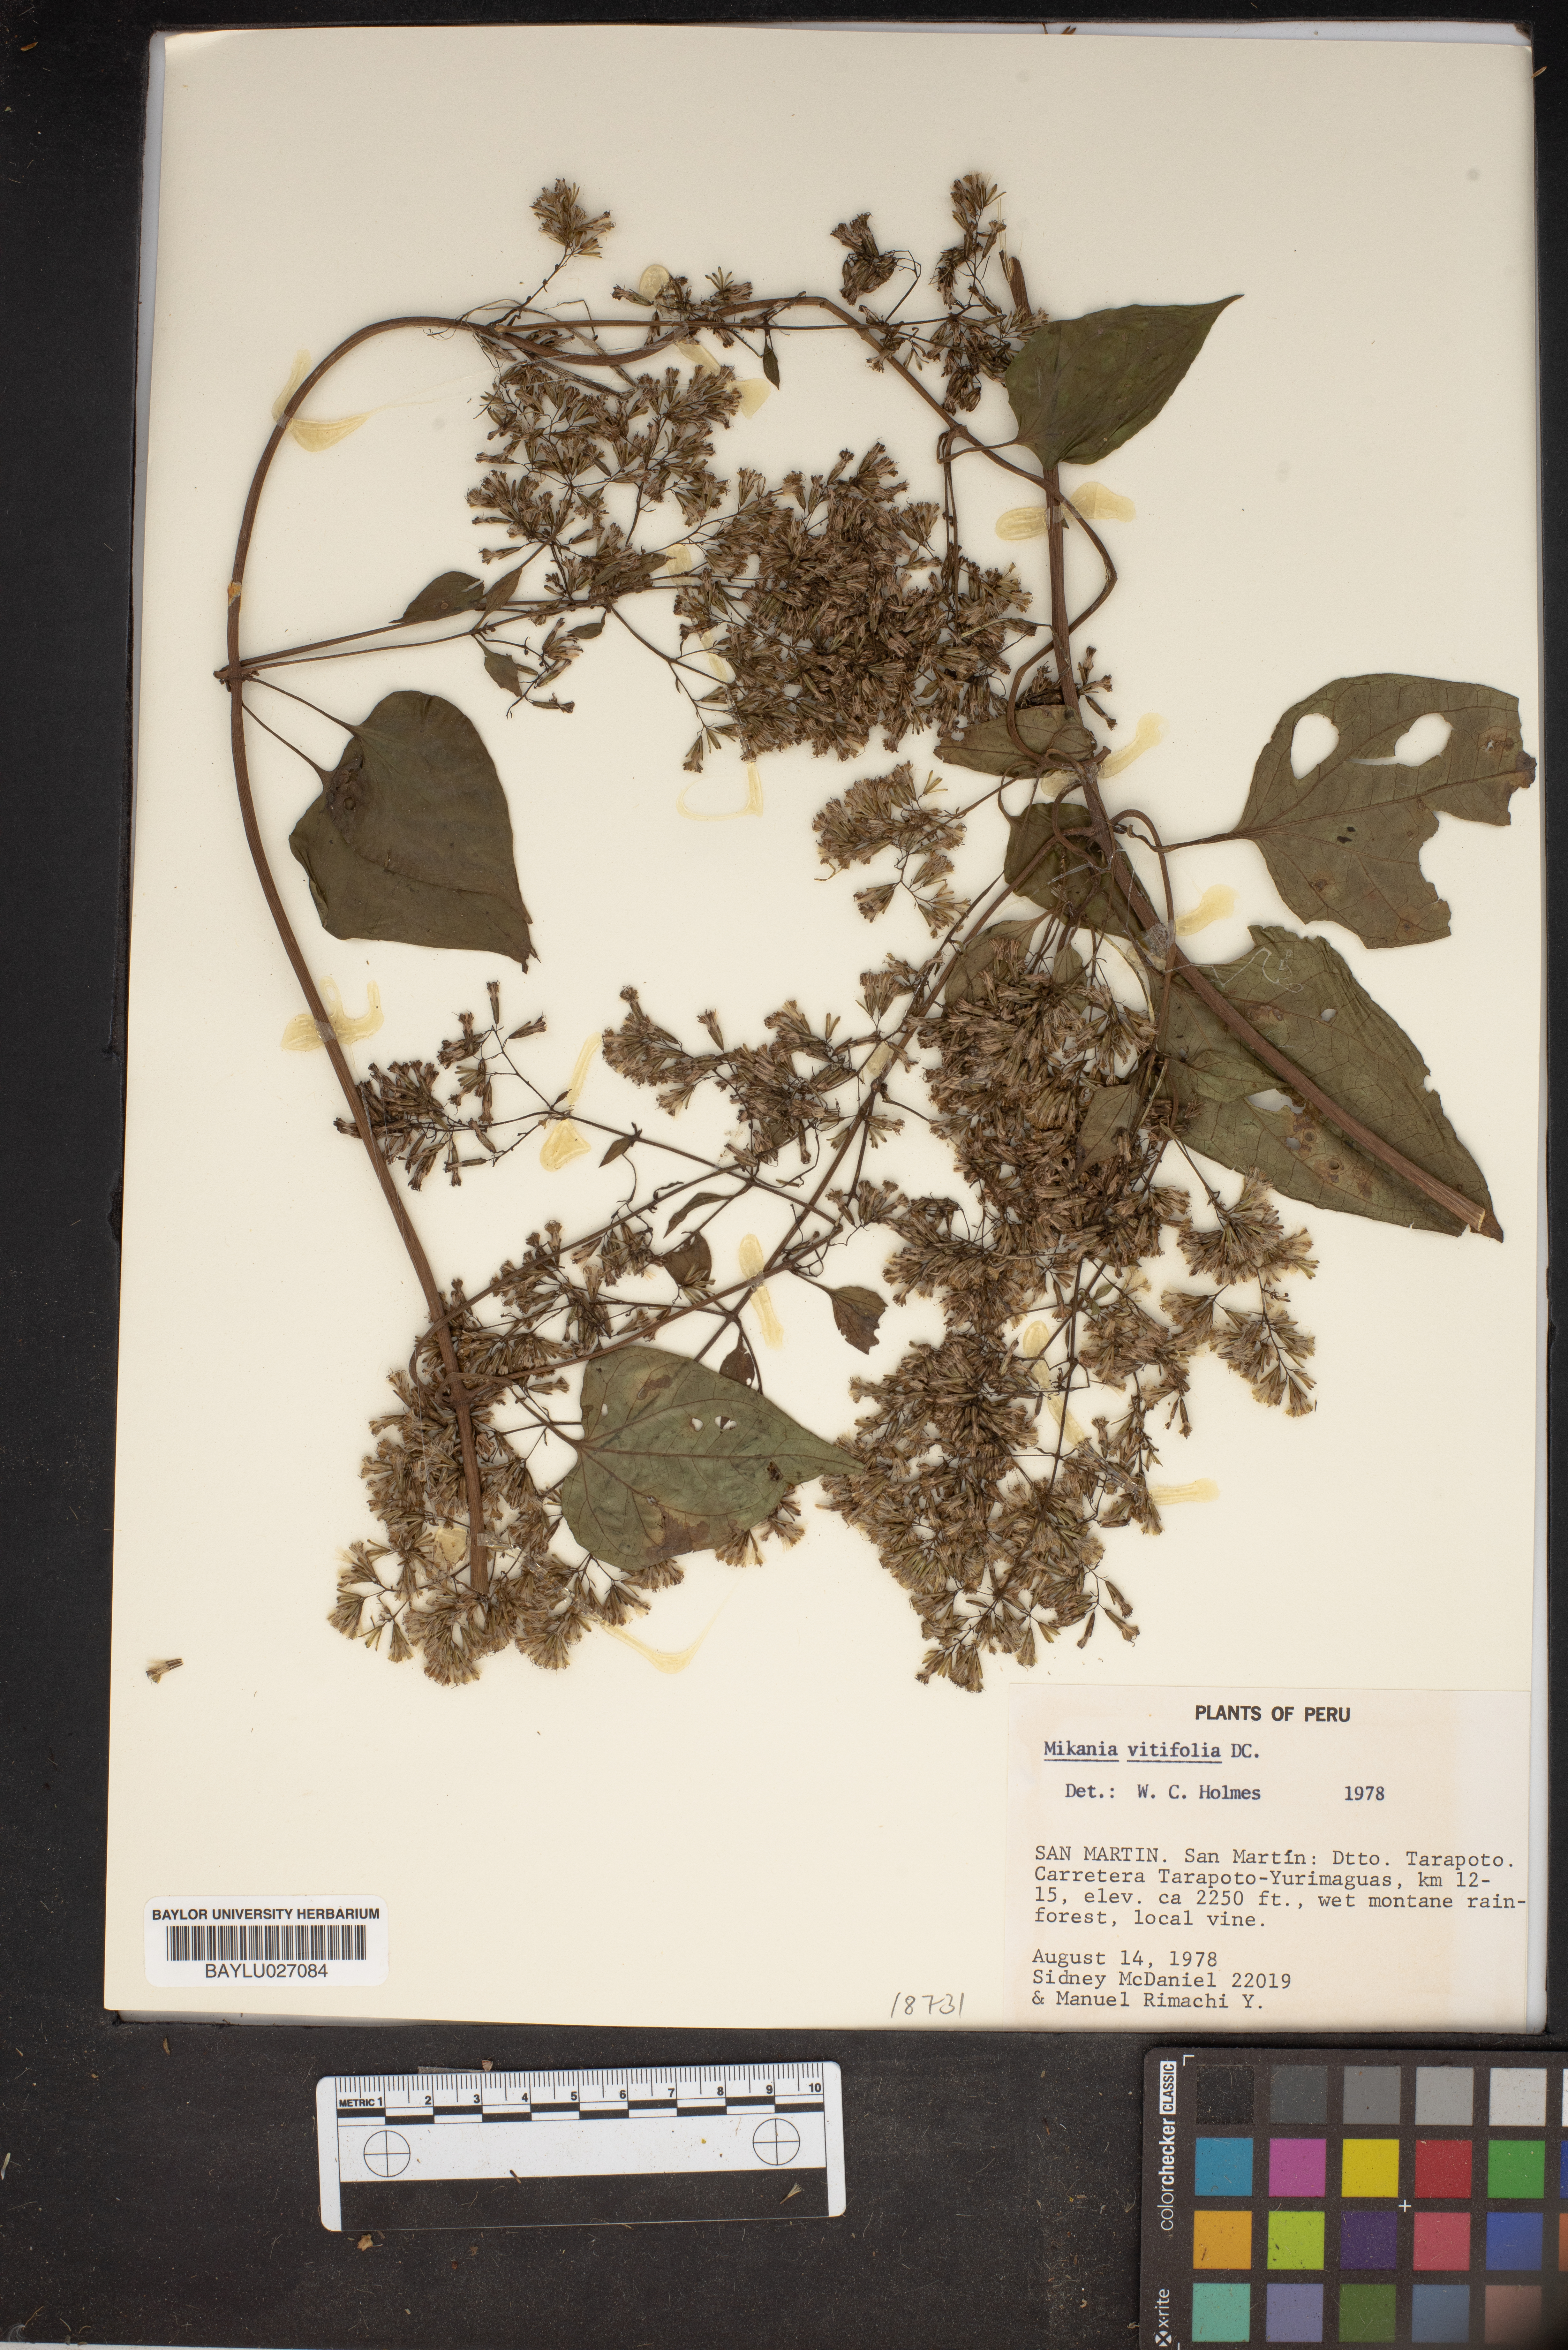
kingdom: Plantae
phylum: Tracheophyta
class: Magnoliopsida
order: Asterales
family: Asteraceae
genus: Mikania
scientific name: Mikania vitifolia
